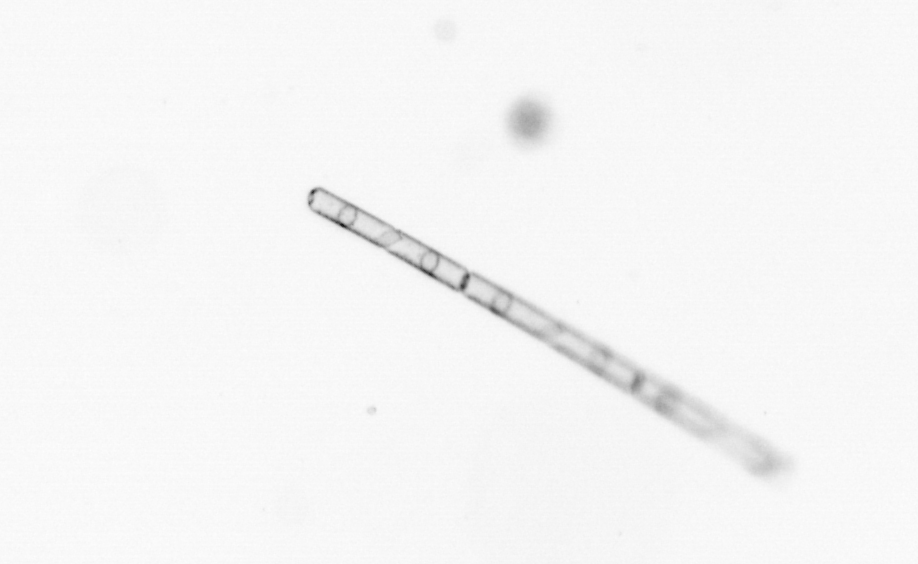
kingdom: Chromista
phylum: Ochrophyta
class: Bacillariophyceae
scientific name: Bacillariophyceae
